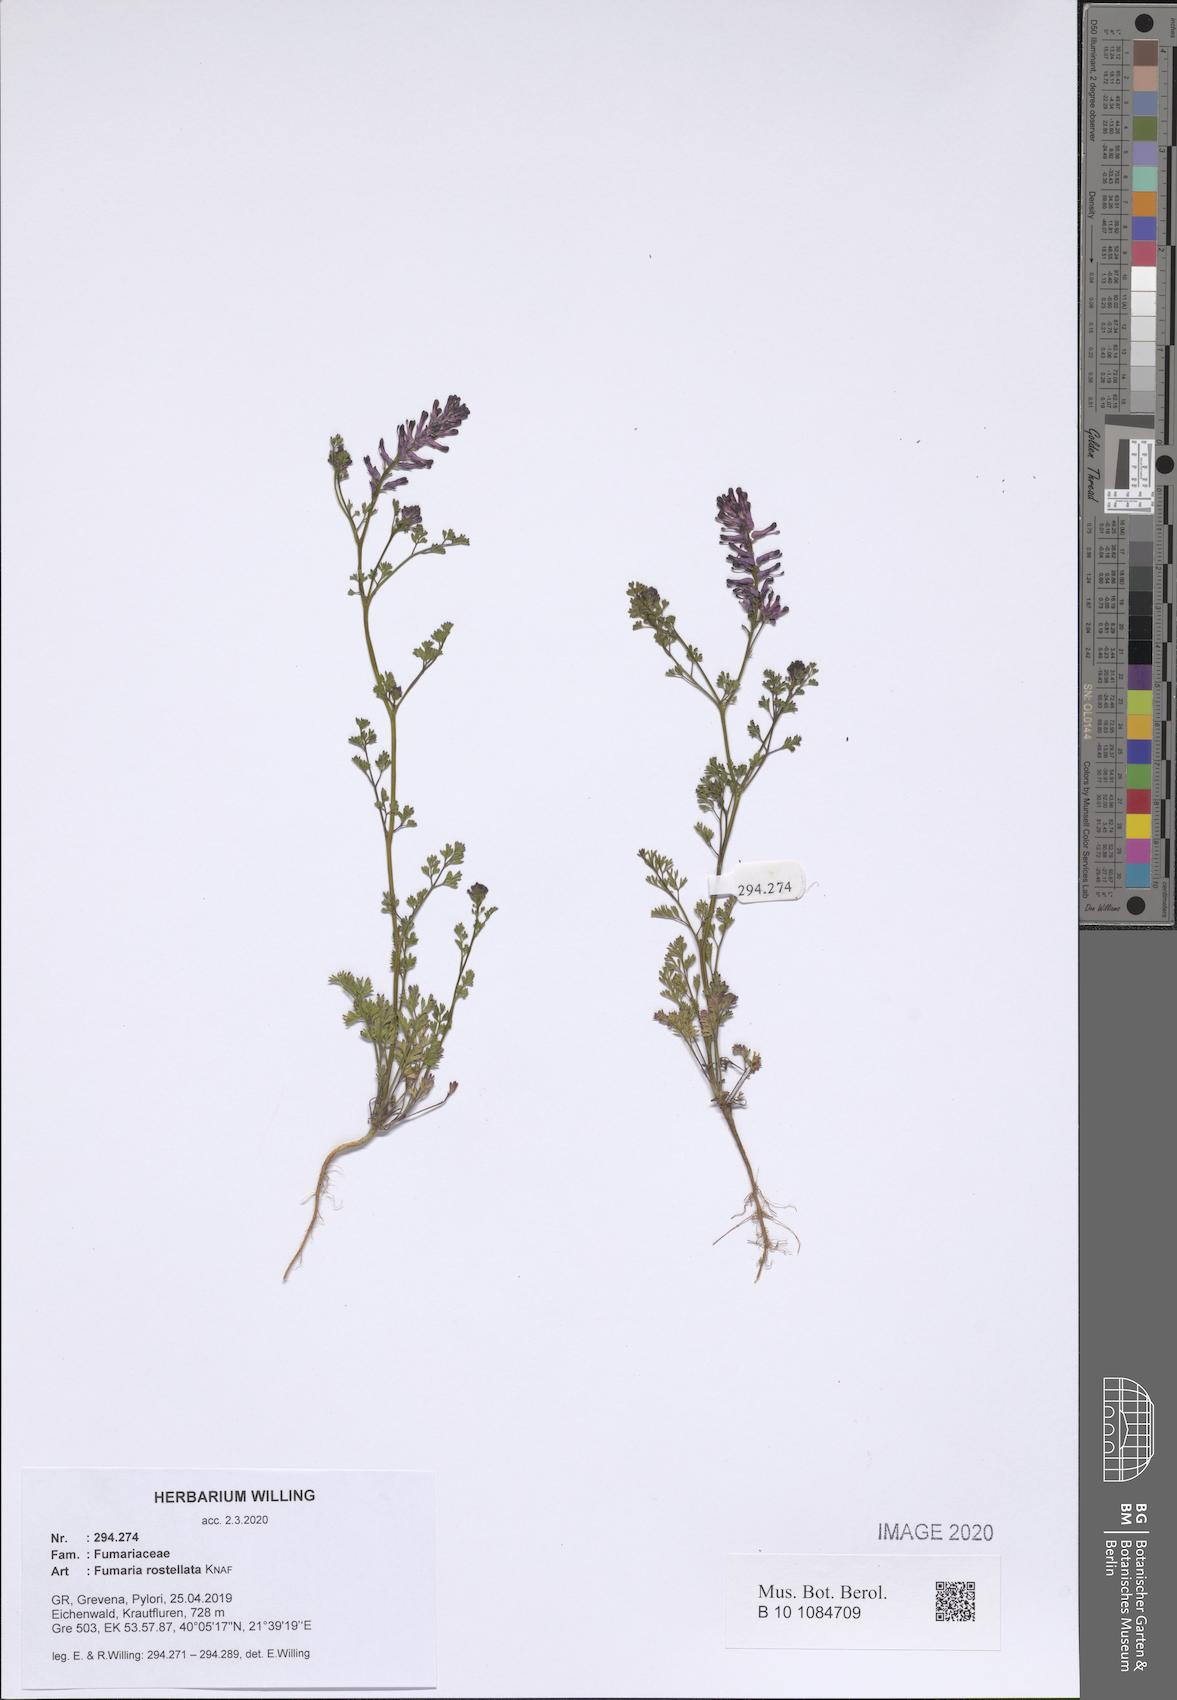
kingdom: Plantae
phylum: Tracheophyta
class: Magnoliopsida
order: Ranunculales
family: Papaveraceae
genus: Fumaria
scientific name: Fumaria rostellata
